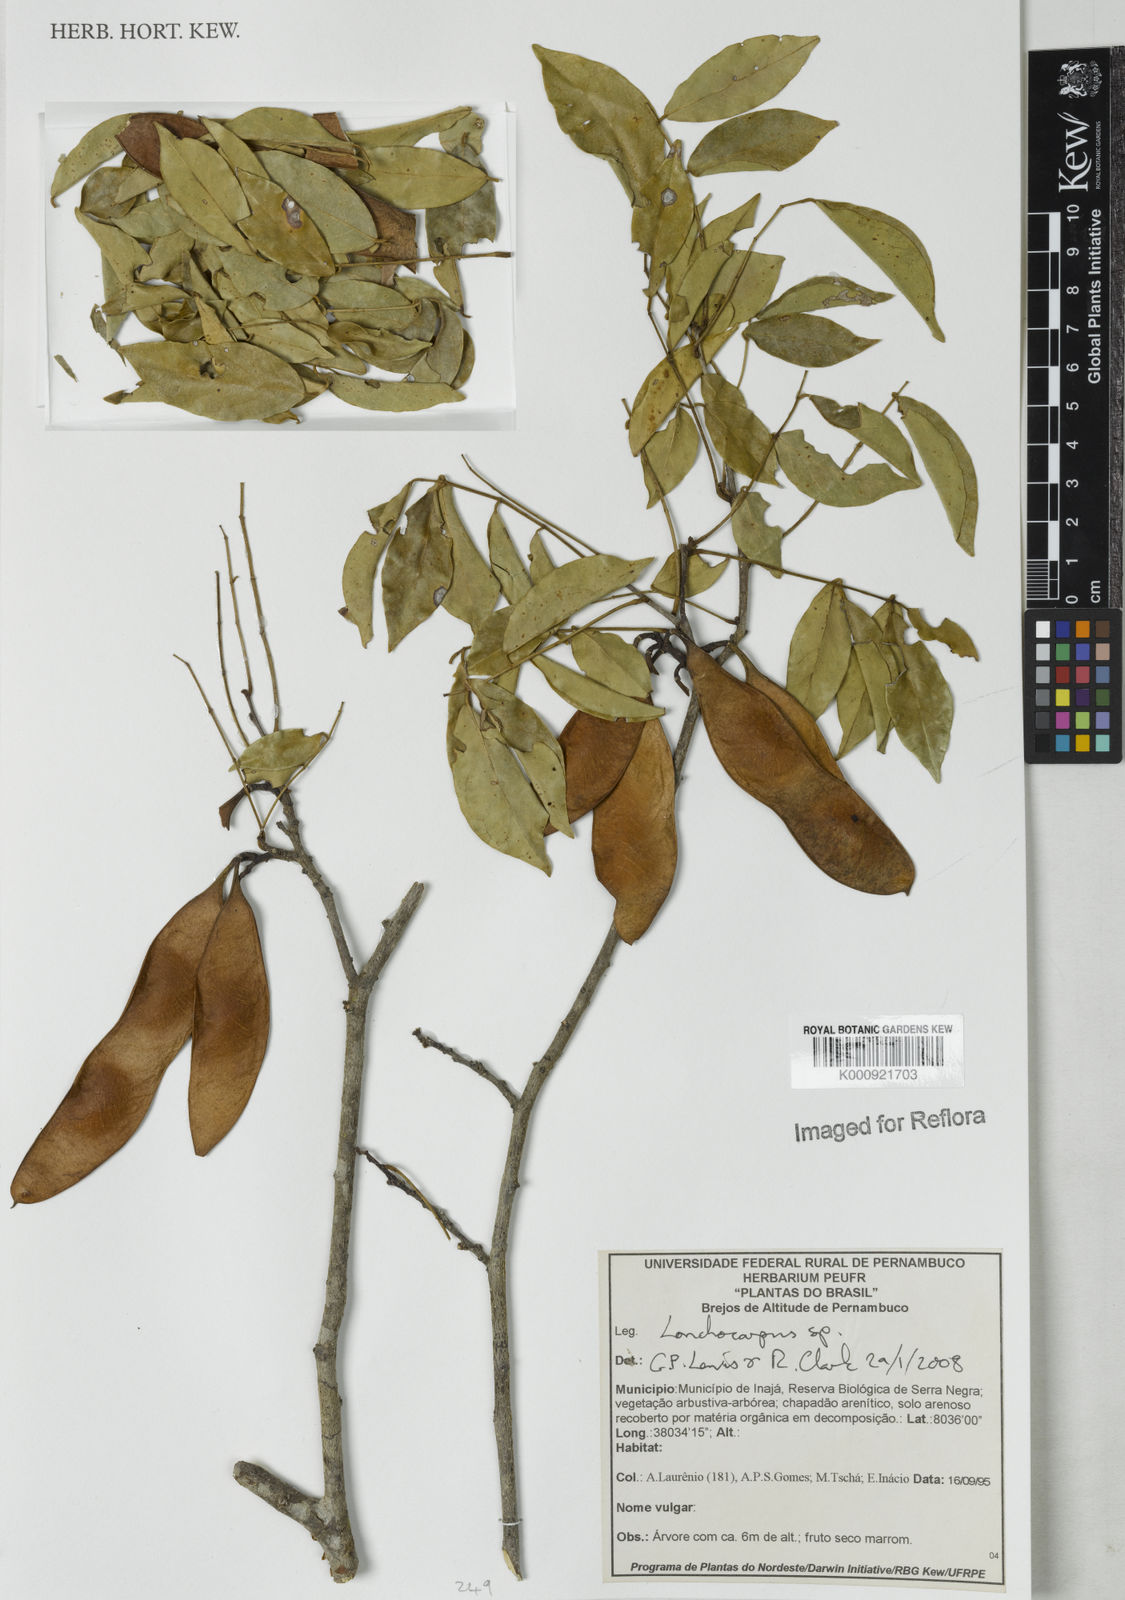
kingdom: Plantae
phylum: Tracheophyta
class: Magnoliopsida
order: Fabales
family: Fabaceae
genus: Lonchocarpus
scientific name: Lonchocarpus
